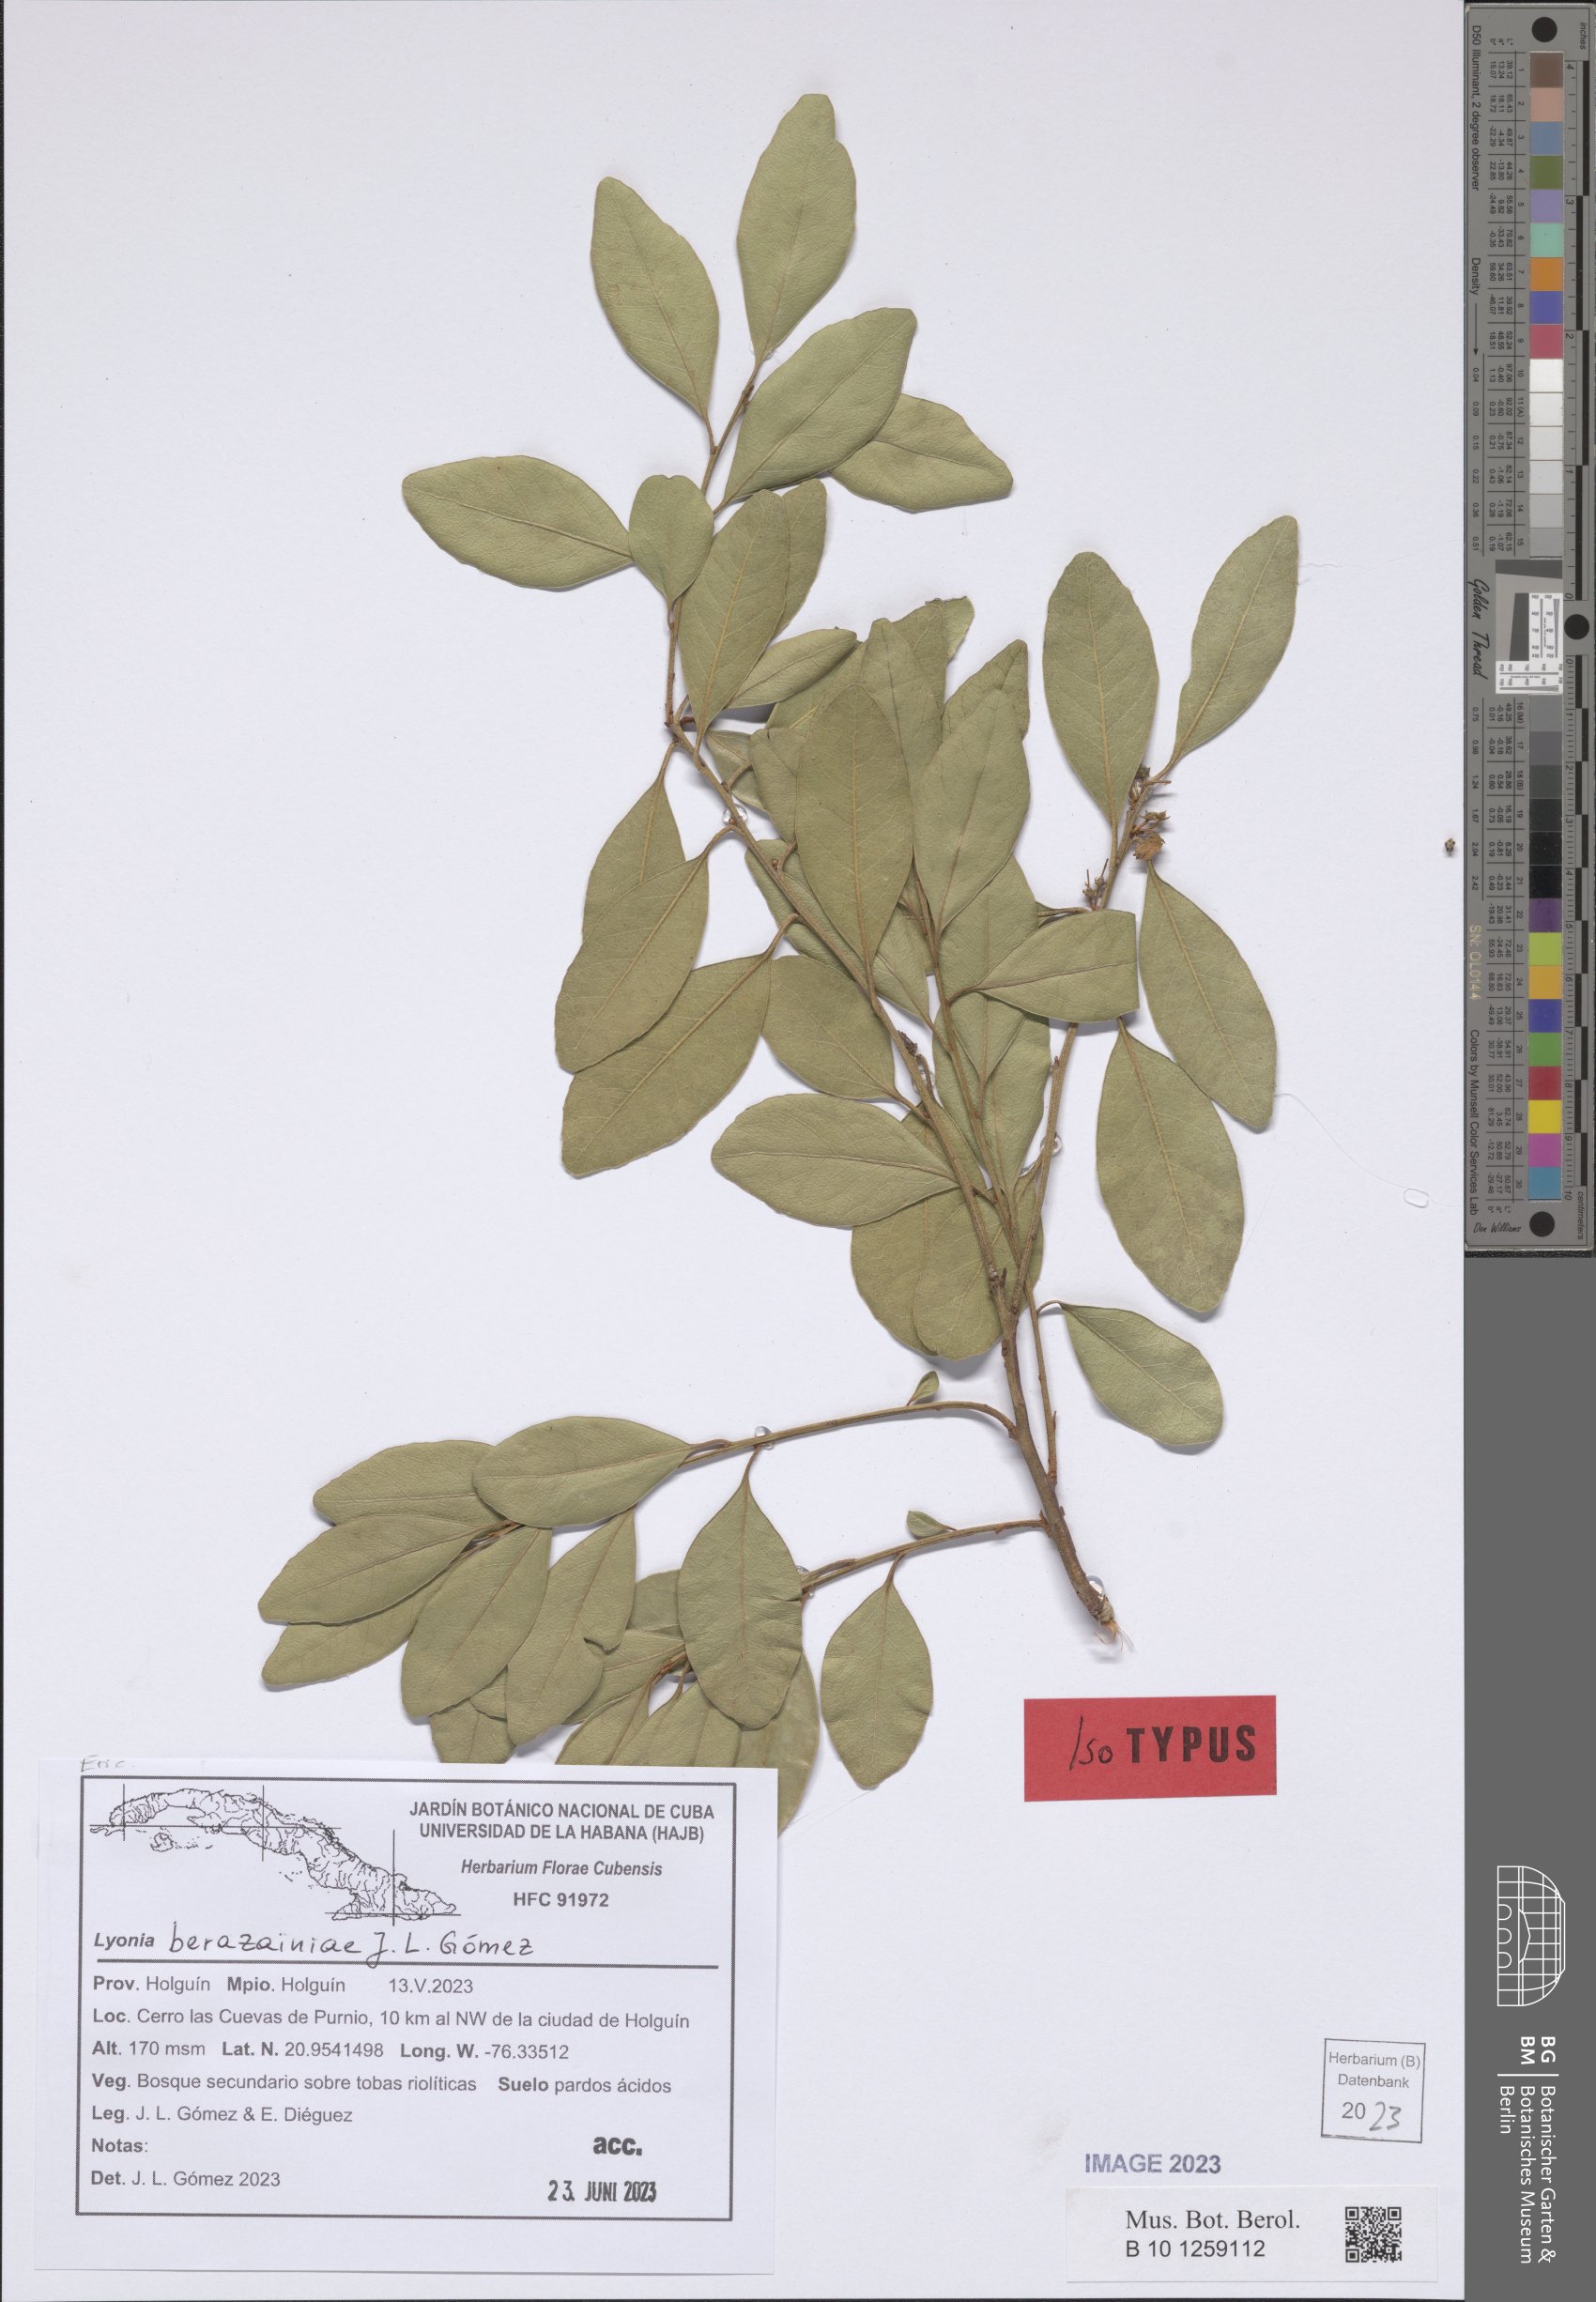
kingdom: Plantae
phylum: Tracheophyta
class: Magnoliopsida
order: Ericales
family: Ericaceae
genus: Lyonia
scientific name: Lyonia
